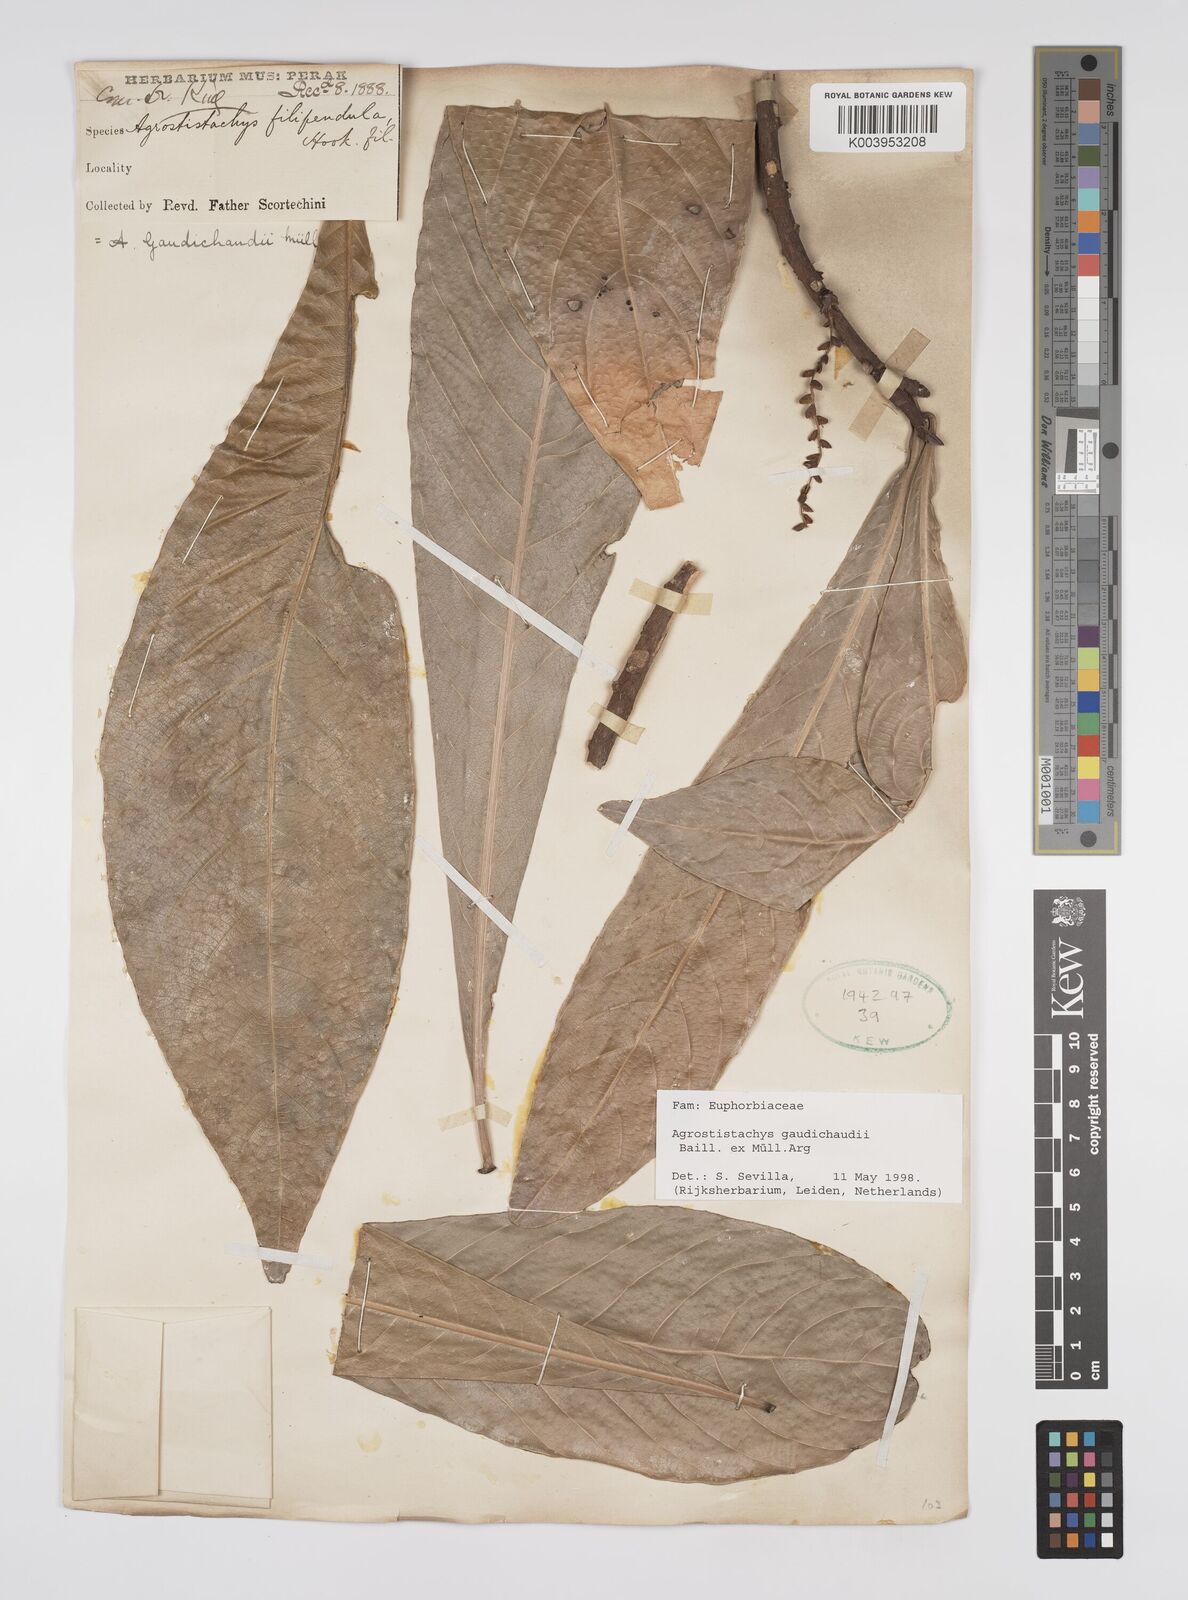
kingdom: Plantae
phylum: Tracheophyta
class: Magnoliopsida
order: Malpighiales
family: Euphorbiaceae
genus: Agrostistachys
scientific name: Agrostistachys gaudichaudii
